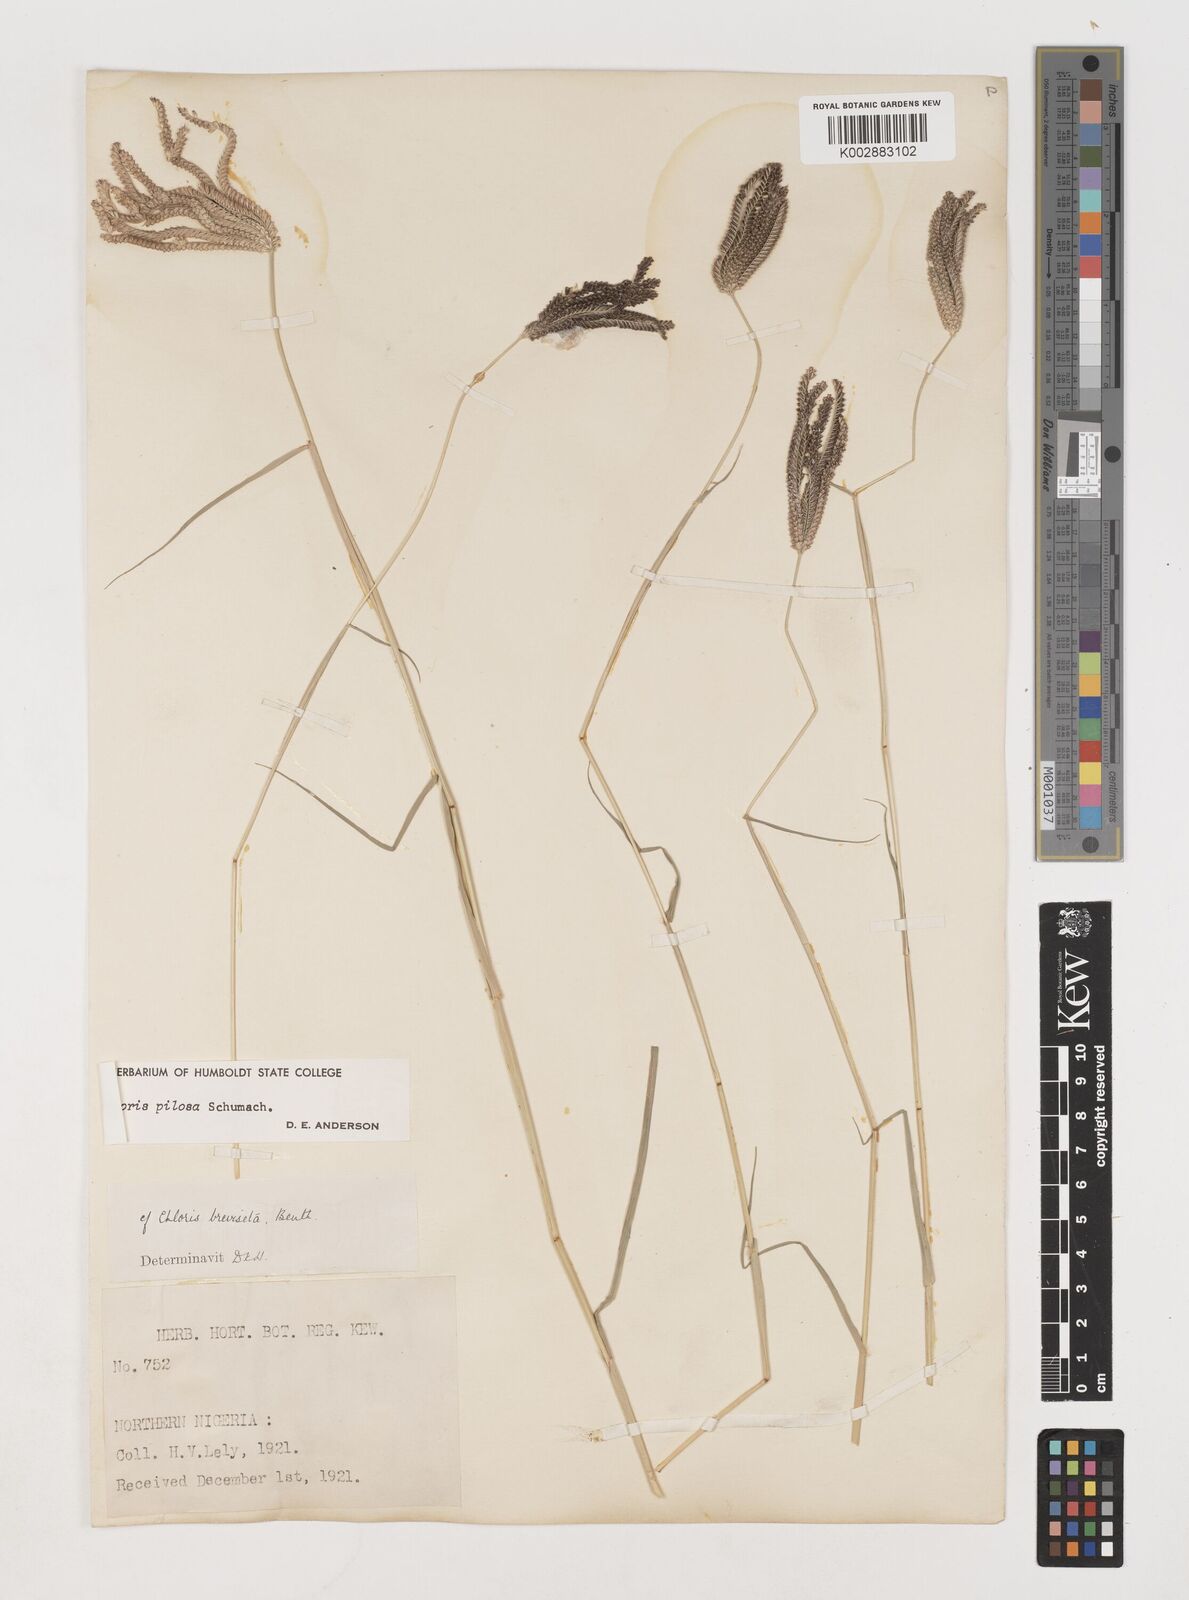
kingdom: Plantae
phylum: Tracheophyta
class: Liliopsida
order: Poales
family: Poaceae
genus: Chloris
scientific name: Chloris pilosa
